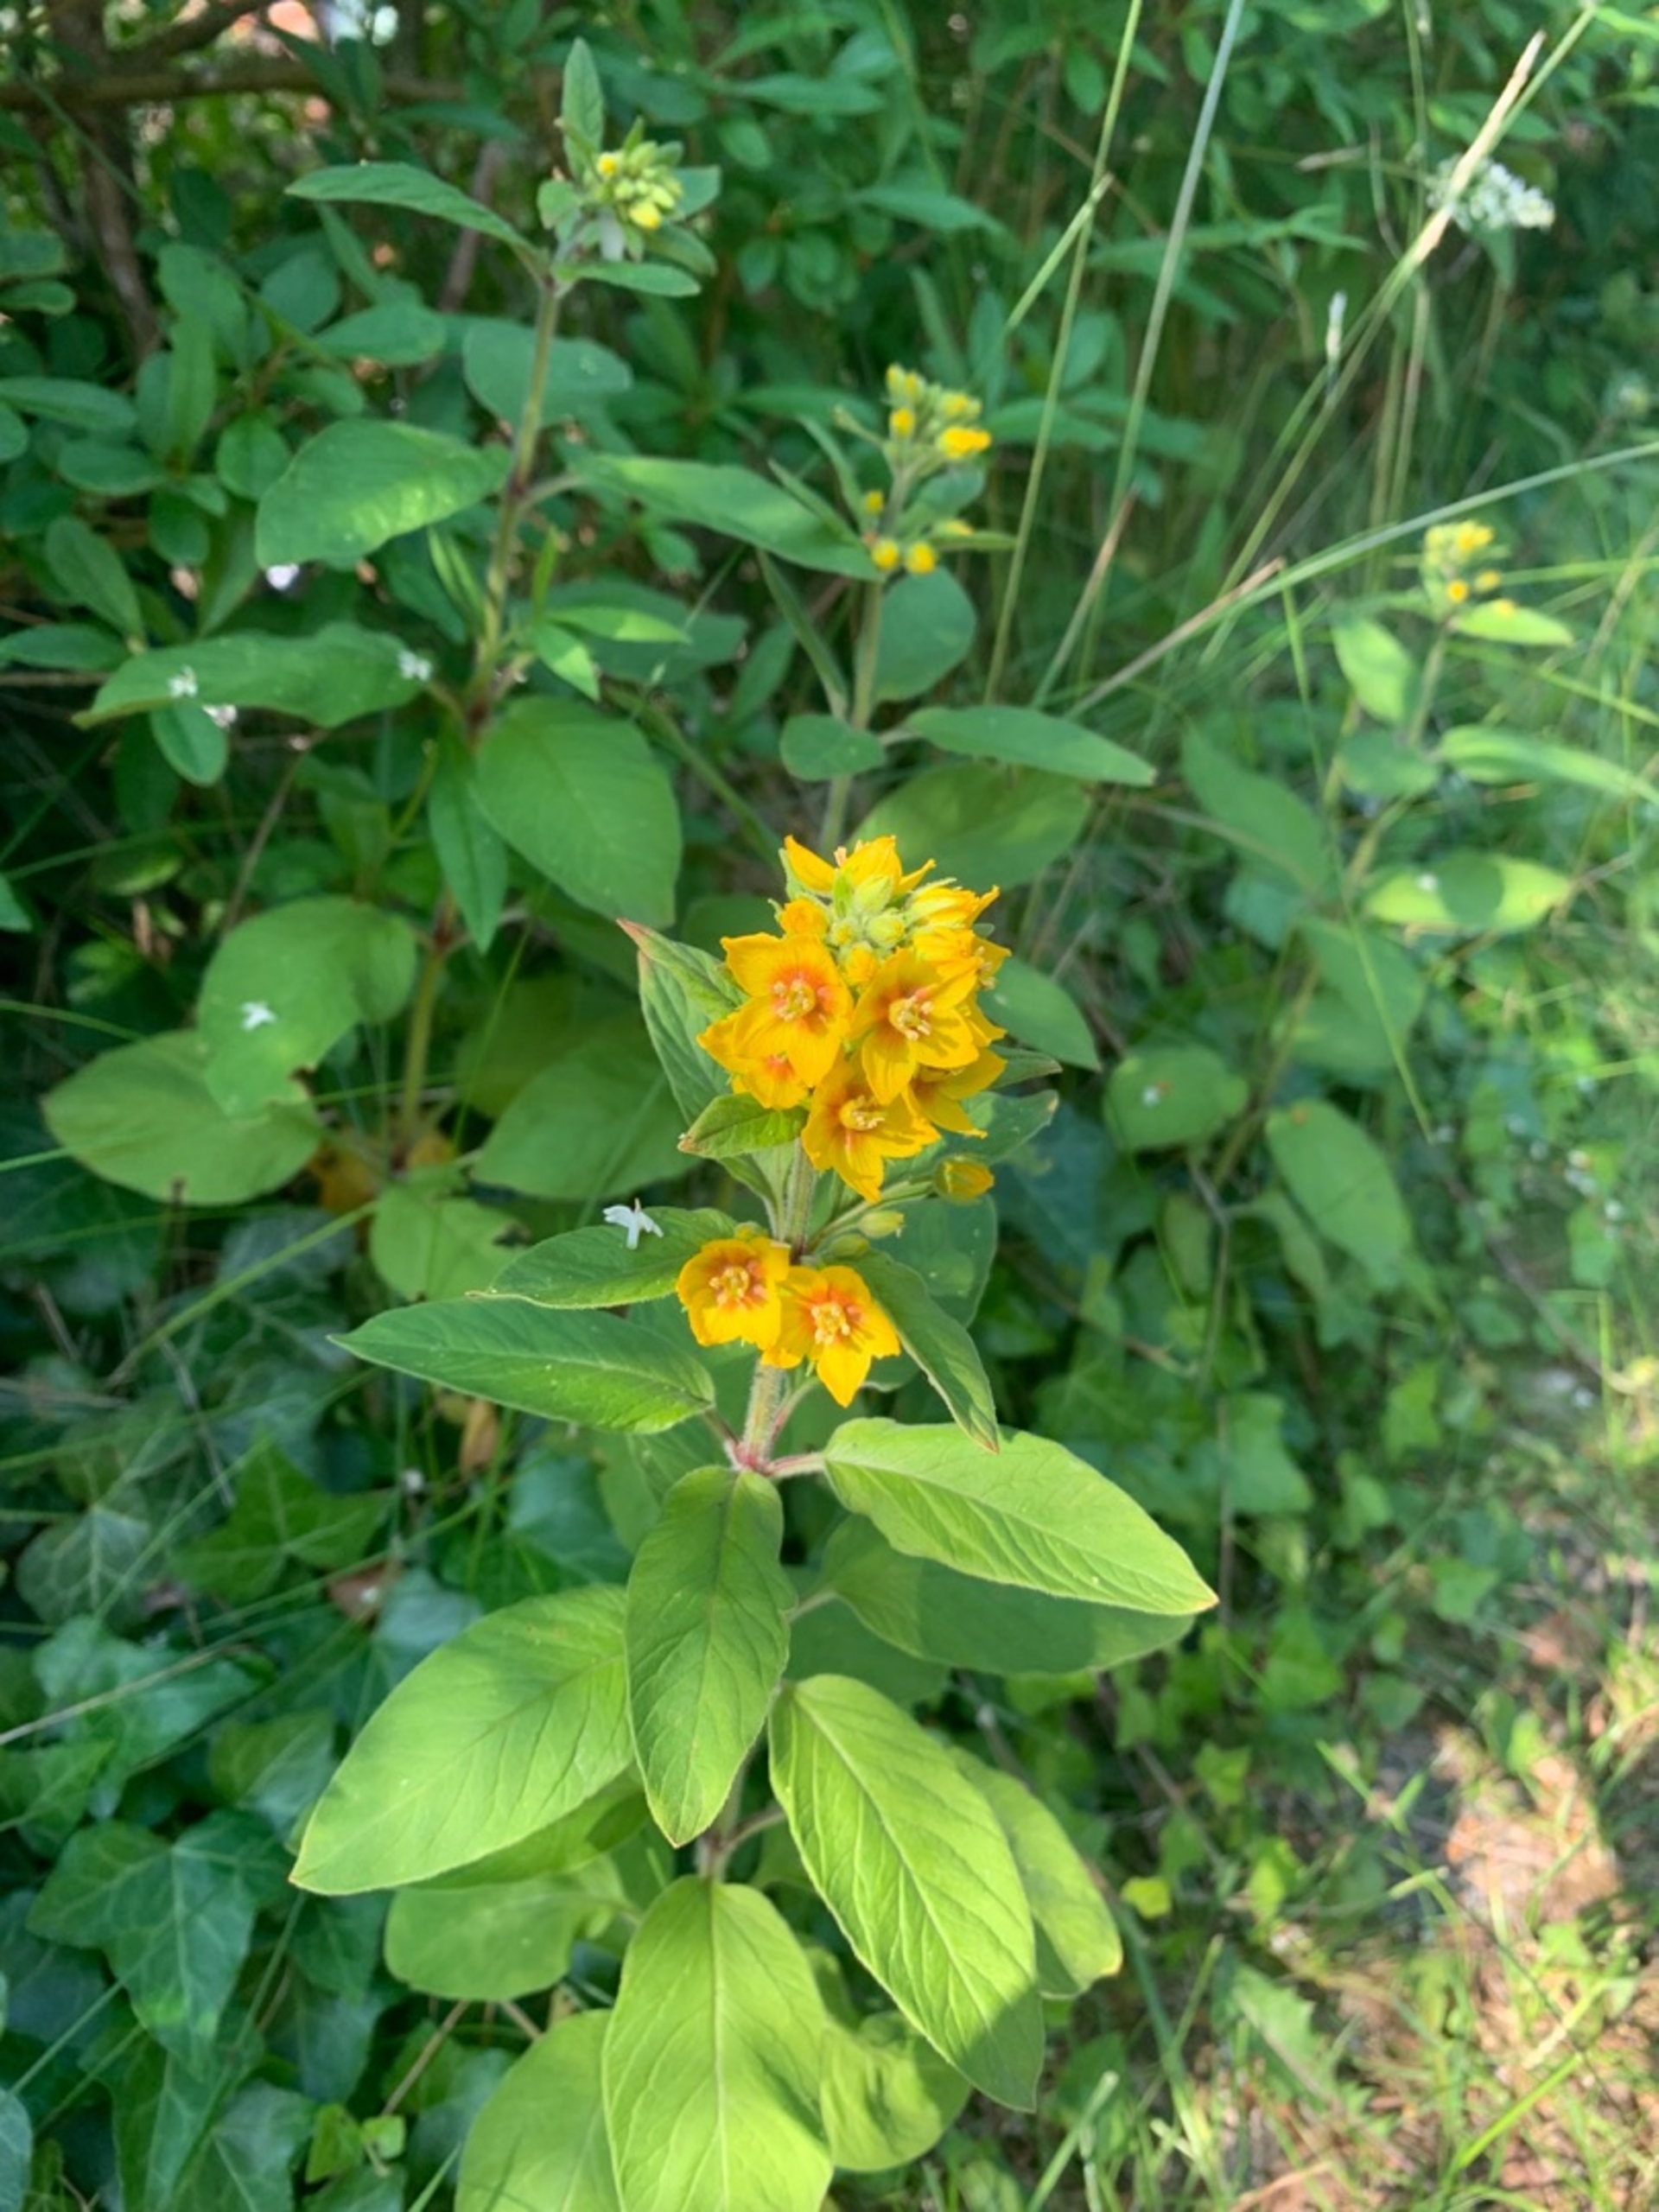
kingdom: Plantae
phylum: Tracheophyta
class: Magnoliopsida
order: Ericales
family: Primulaceae
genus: Lysimachia
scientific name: Lysimachia punctata
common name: Prikbladet fredløs
